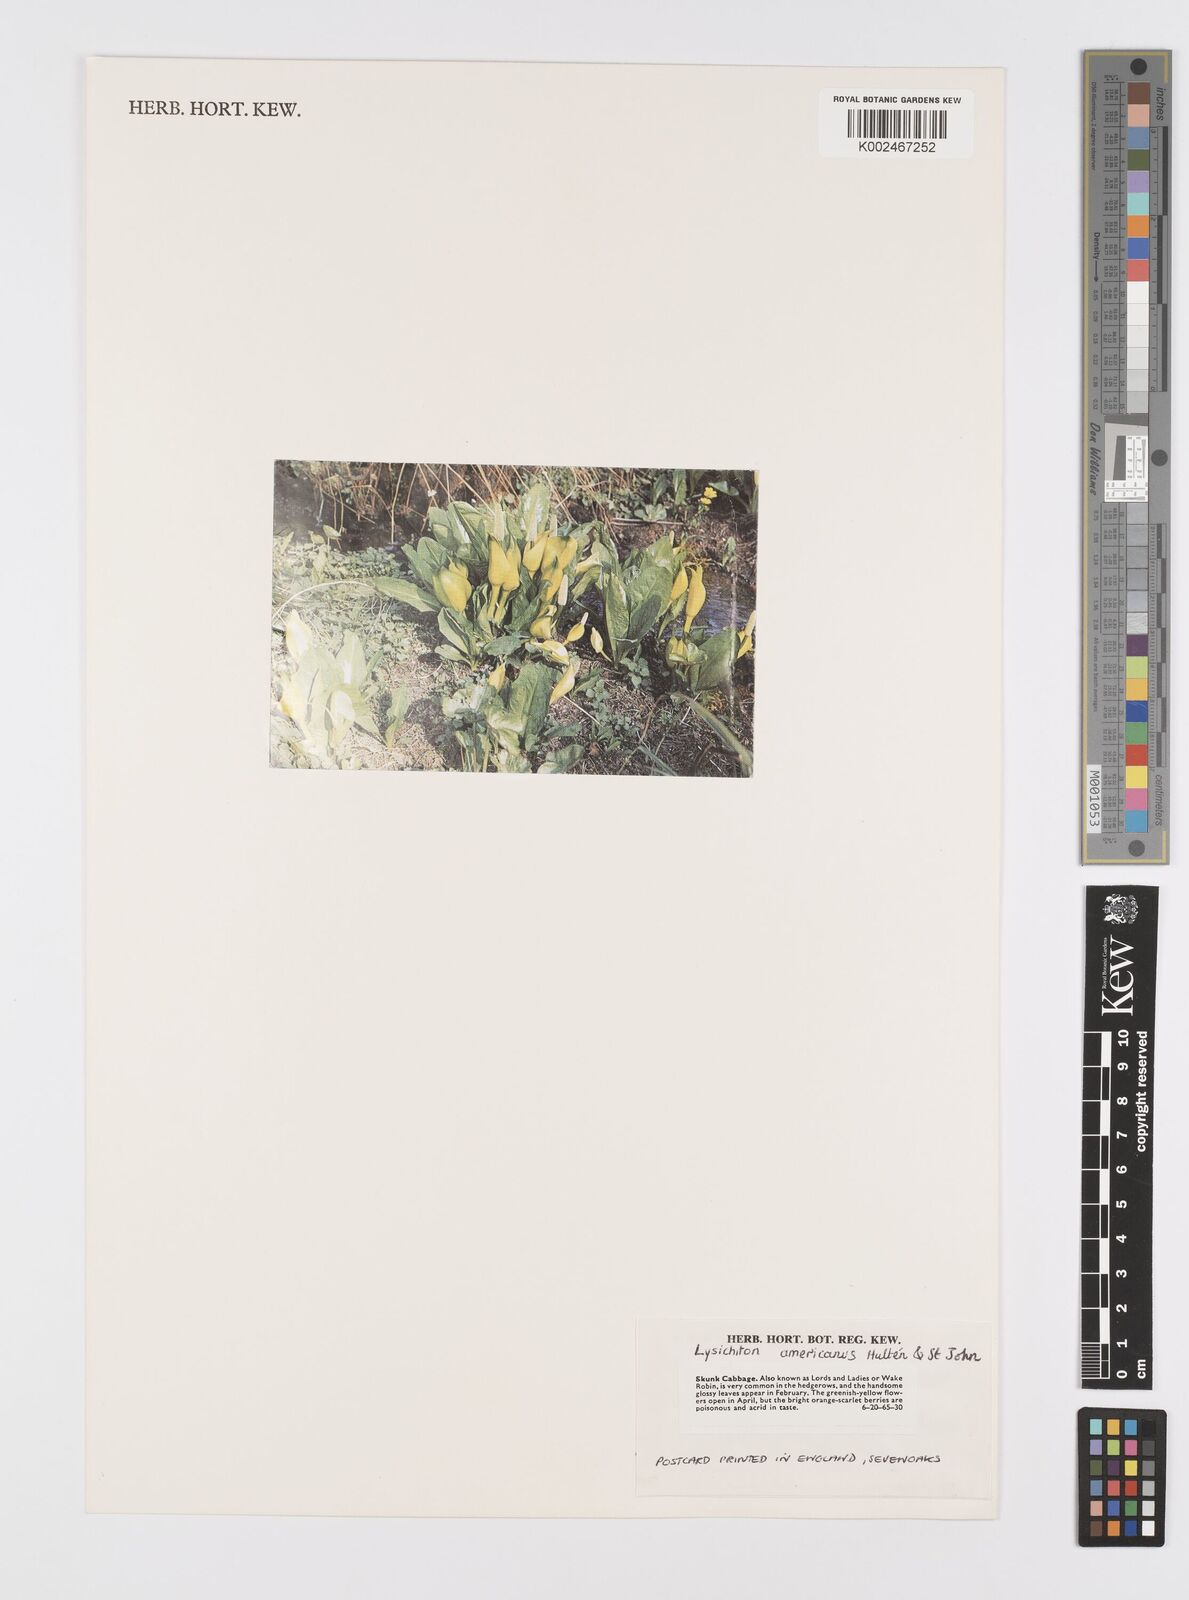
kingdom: Plantae
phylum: Tracheophyta
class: Liliopsida
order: Alismatales
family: Araceae
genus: Lysichiton
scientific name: Lysichiton americanus
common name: American skunk cabbage
